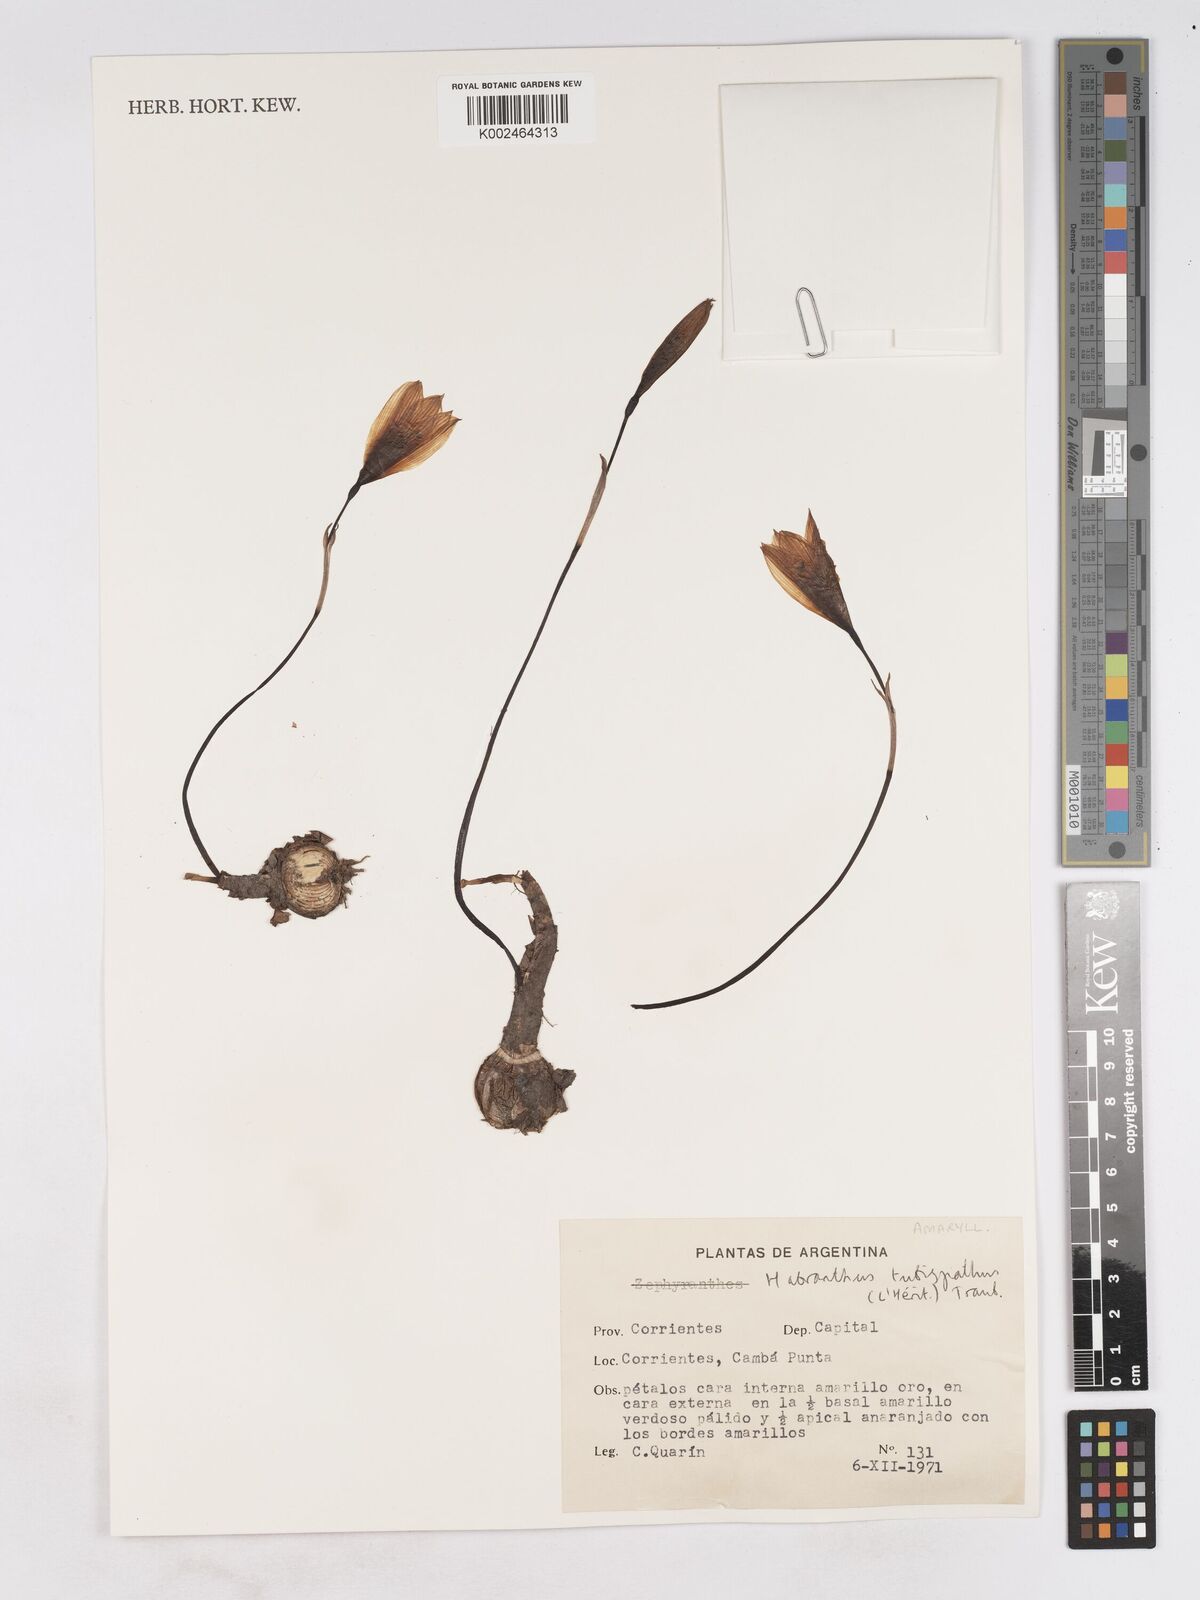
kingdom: Plantae
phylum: Tracheophyta
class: Liliopsida
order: Asparagales
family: Amaryllidaceae
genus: Zephyranthes
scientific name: Zephyranthes tubispatha
